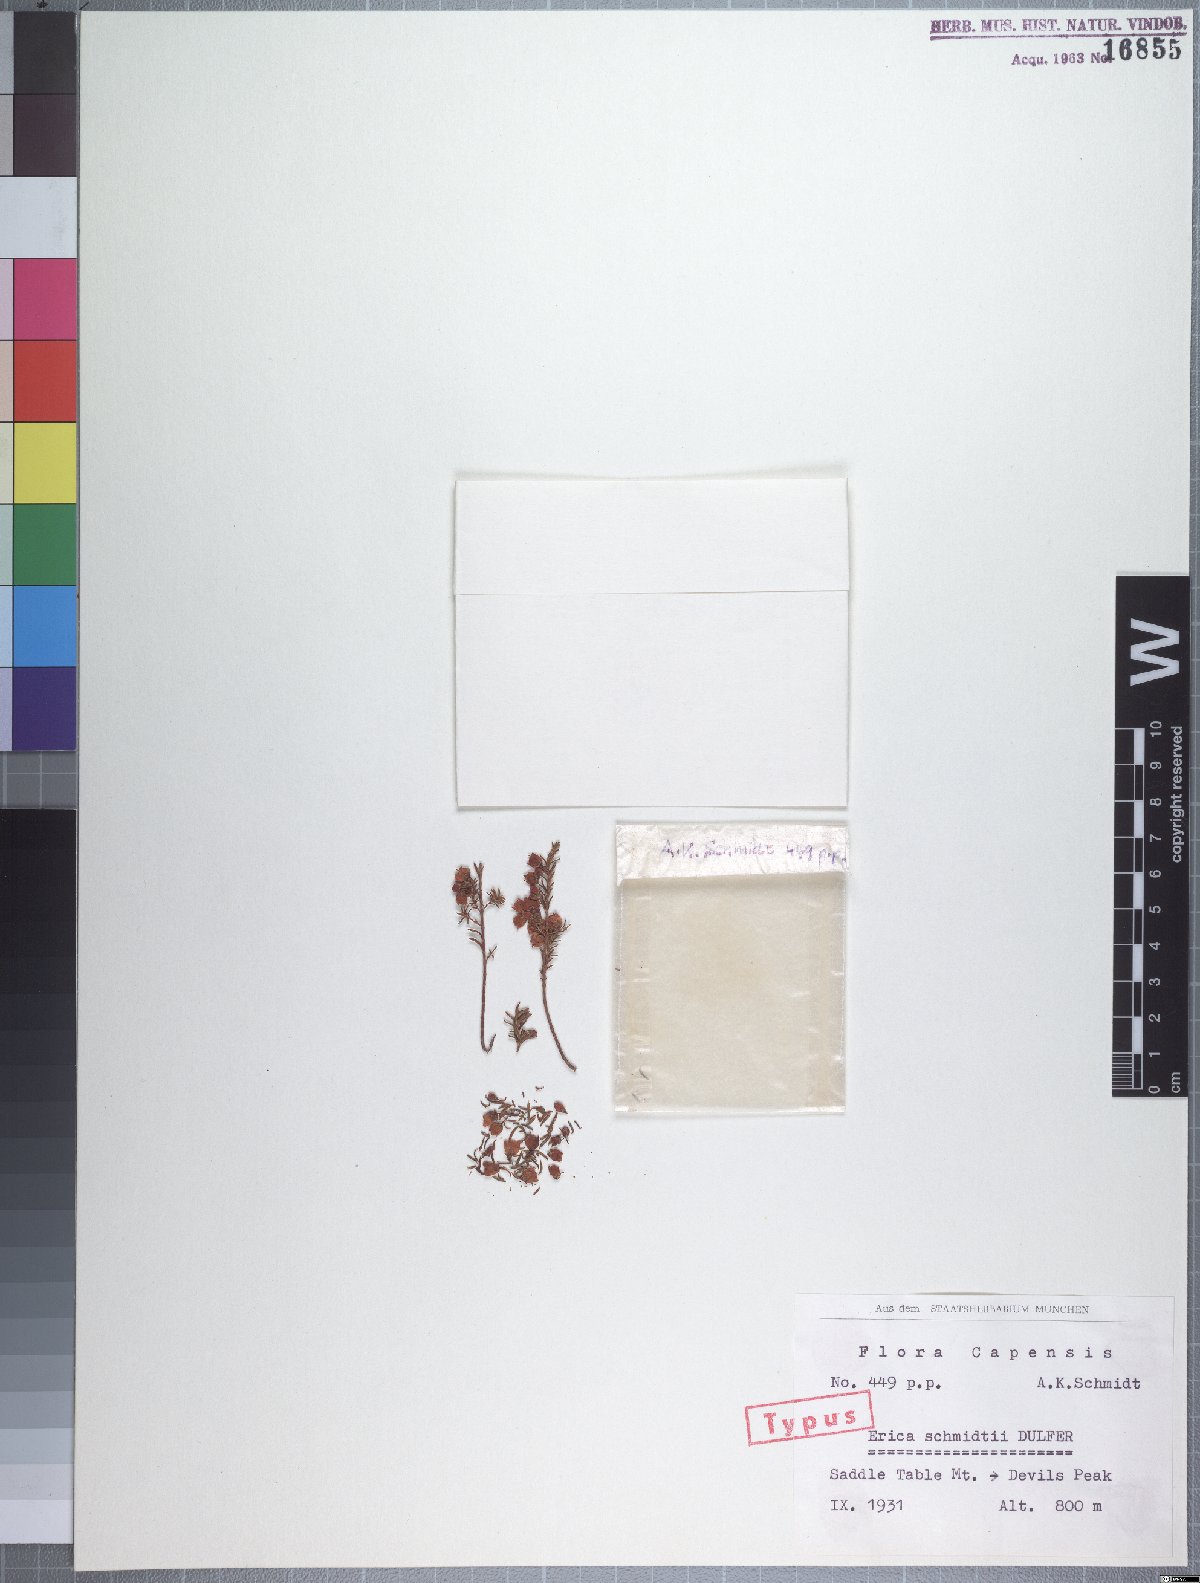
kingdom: Plantae
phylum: Tracheophyta
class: Magnoliopsida
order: Ericales
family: Ericaceae
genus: Erica
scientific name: Erica schmidtii
